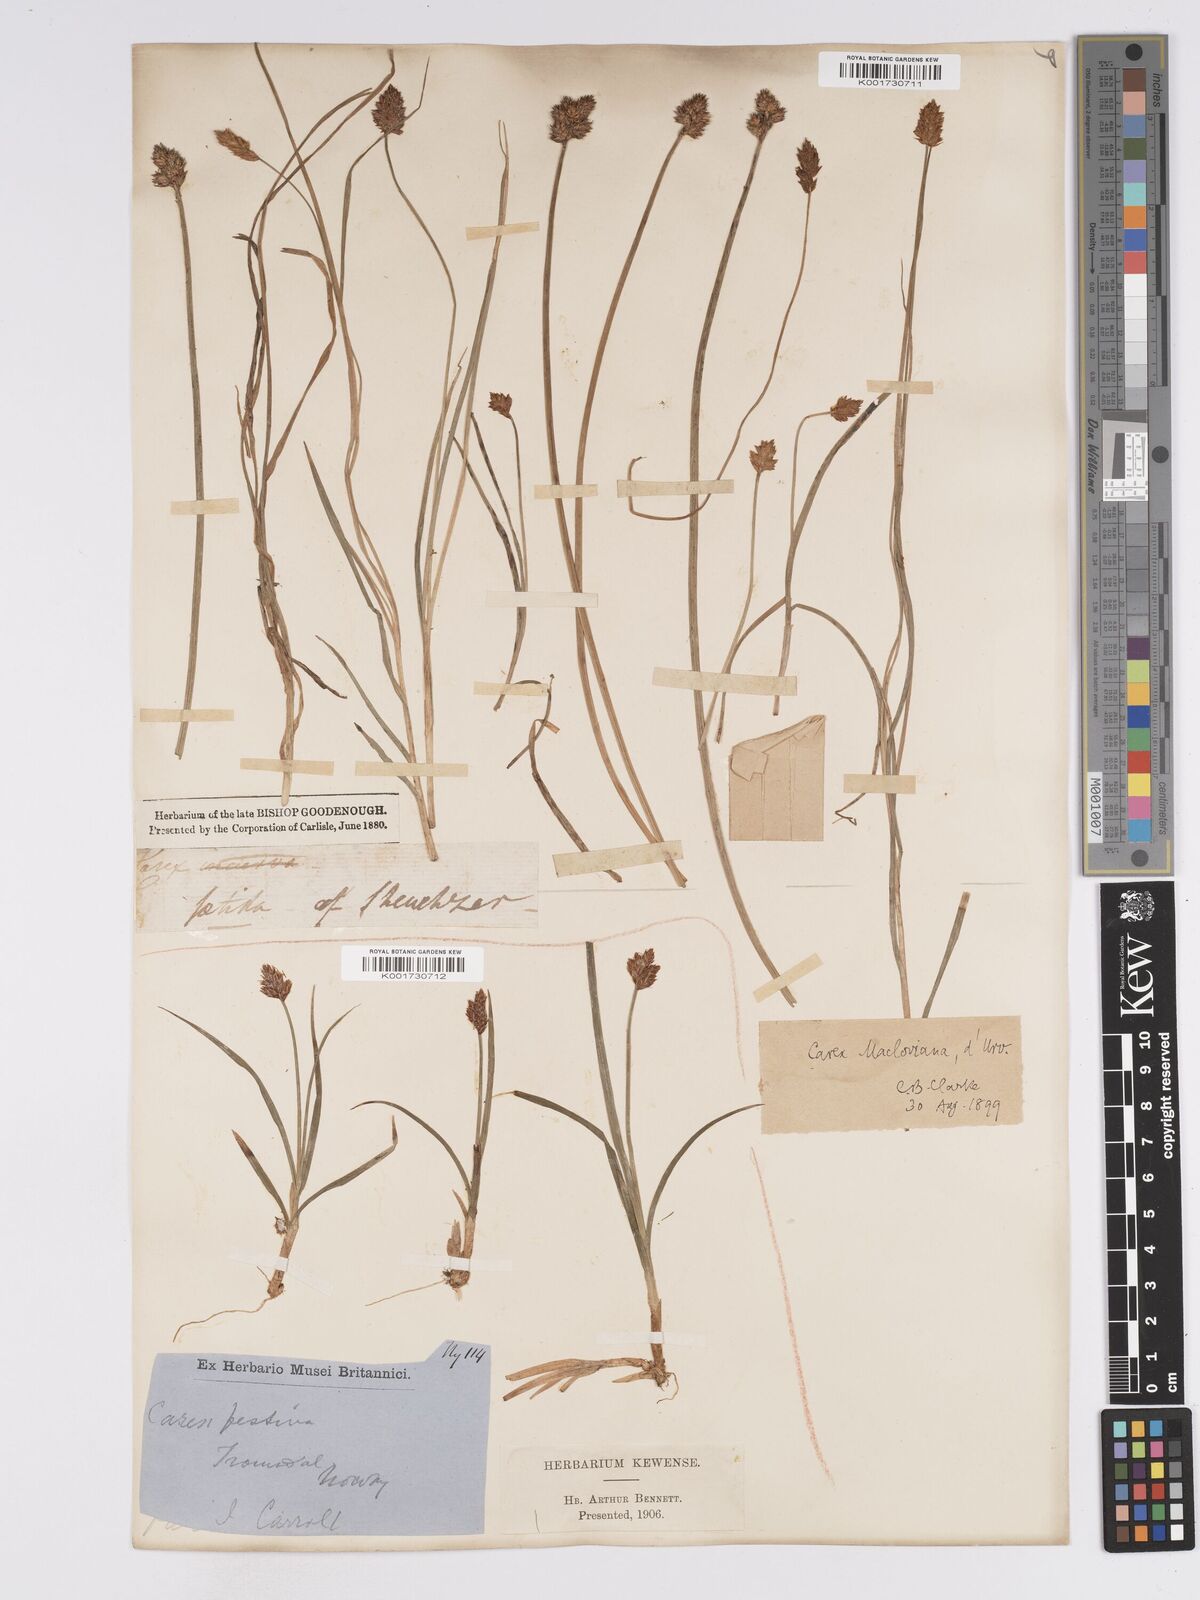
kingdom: Plantae
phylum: Tracheophyta
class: Liliopsida
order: Poales
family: Cyperaceae
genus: Carex
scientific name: Carex macloviana
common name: Falkland island sedge
